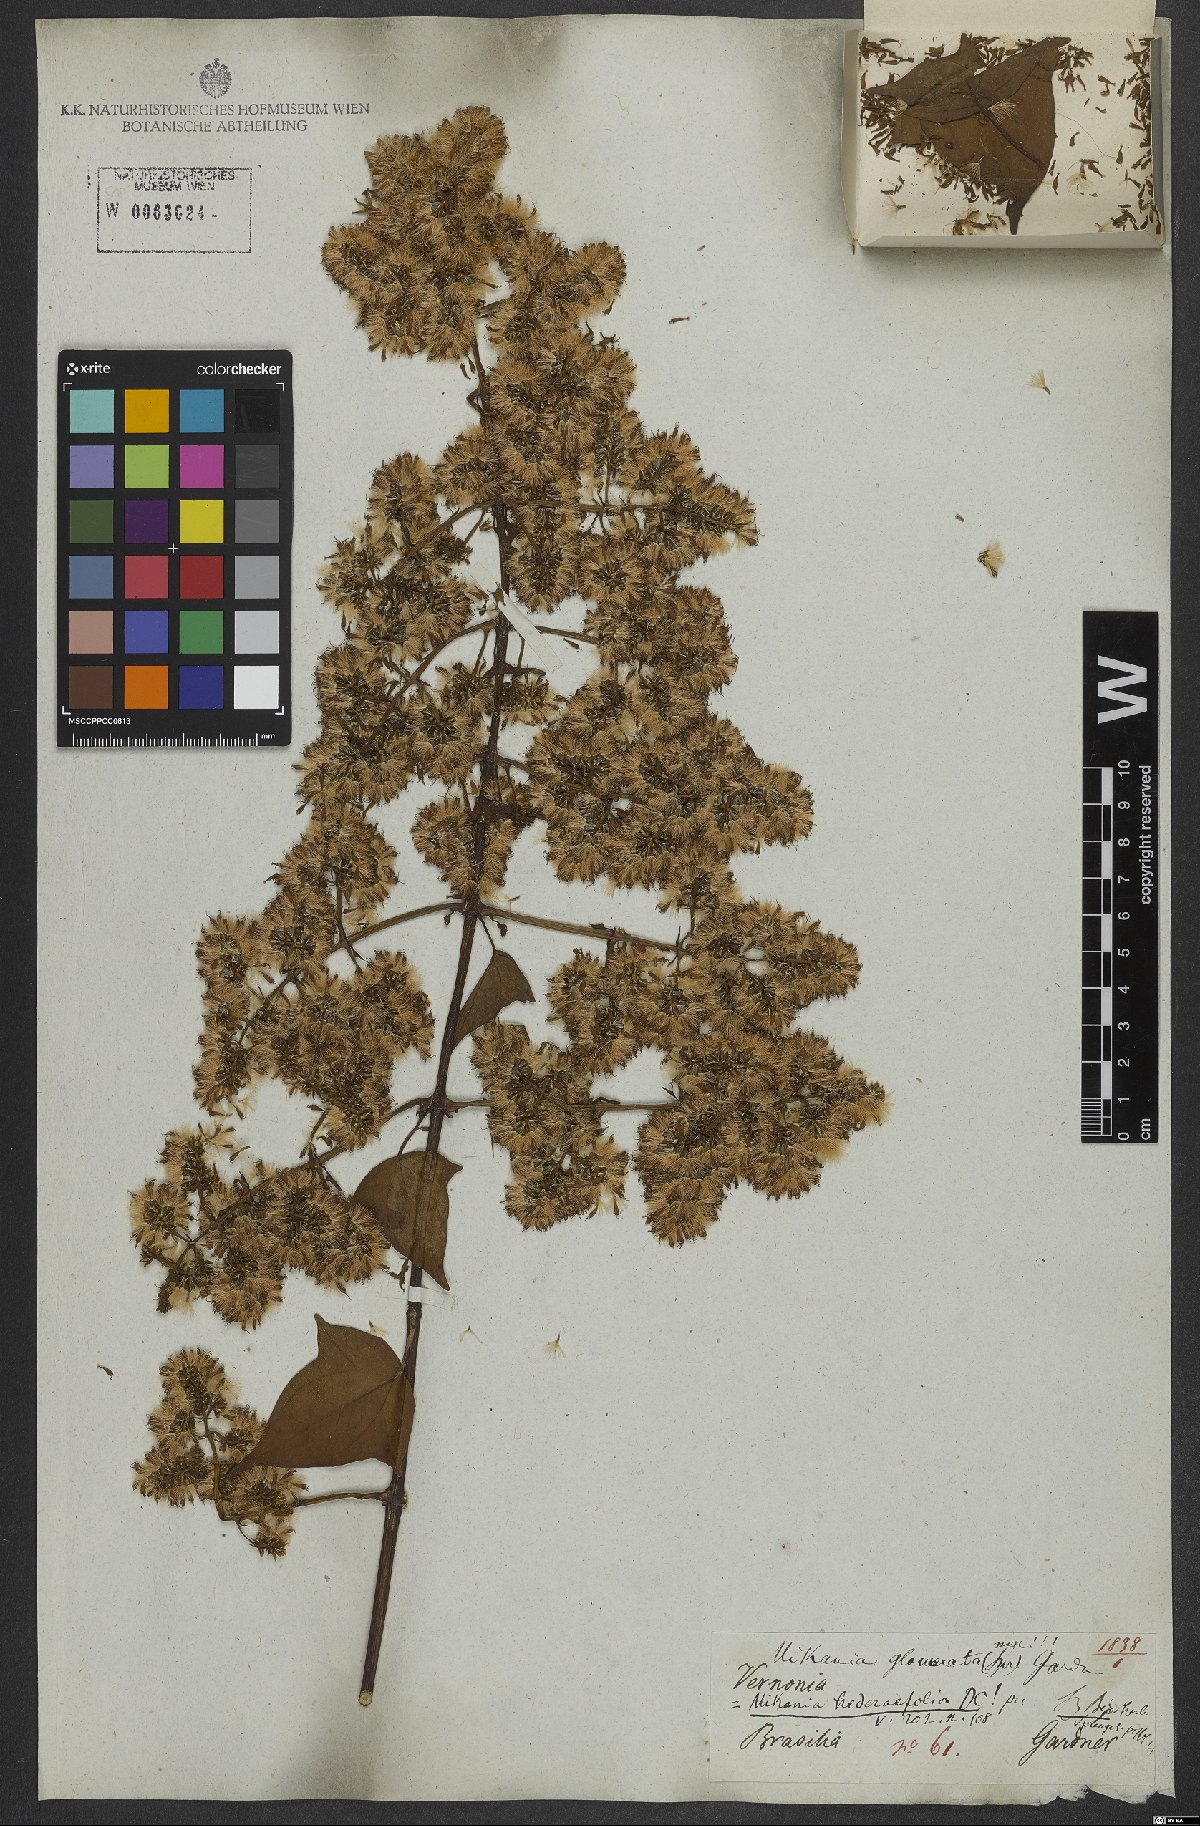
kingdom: Plantae
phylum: Tracheophyta
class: Magnoliopsida
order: Asterales
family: Asteraceae
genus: Mikania
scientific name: Mikania glomerata
